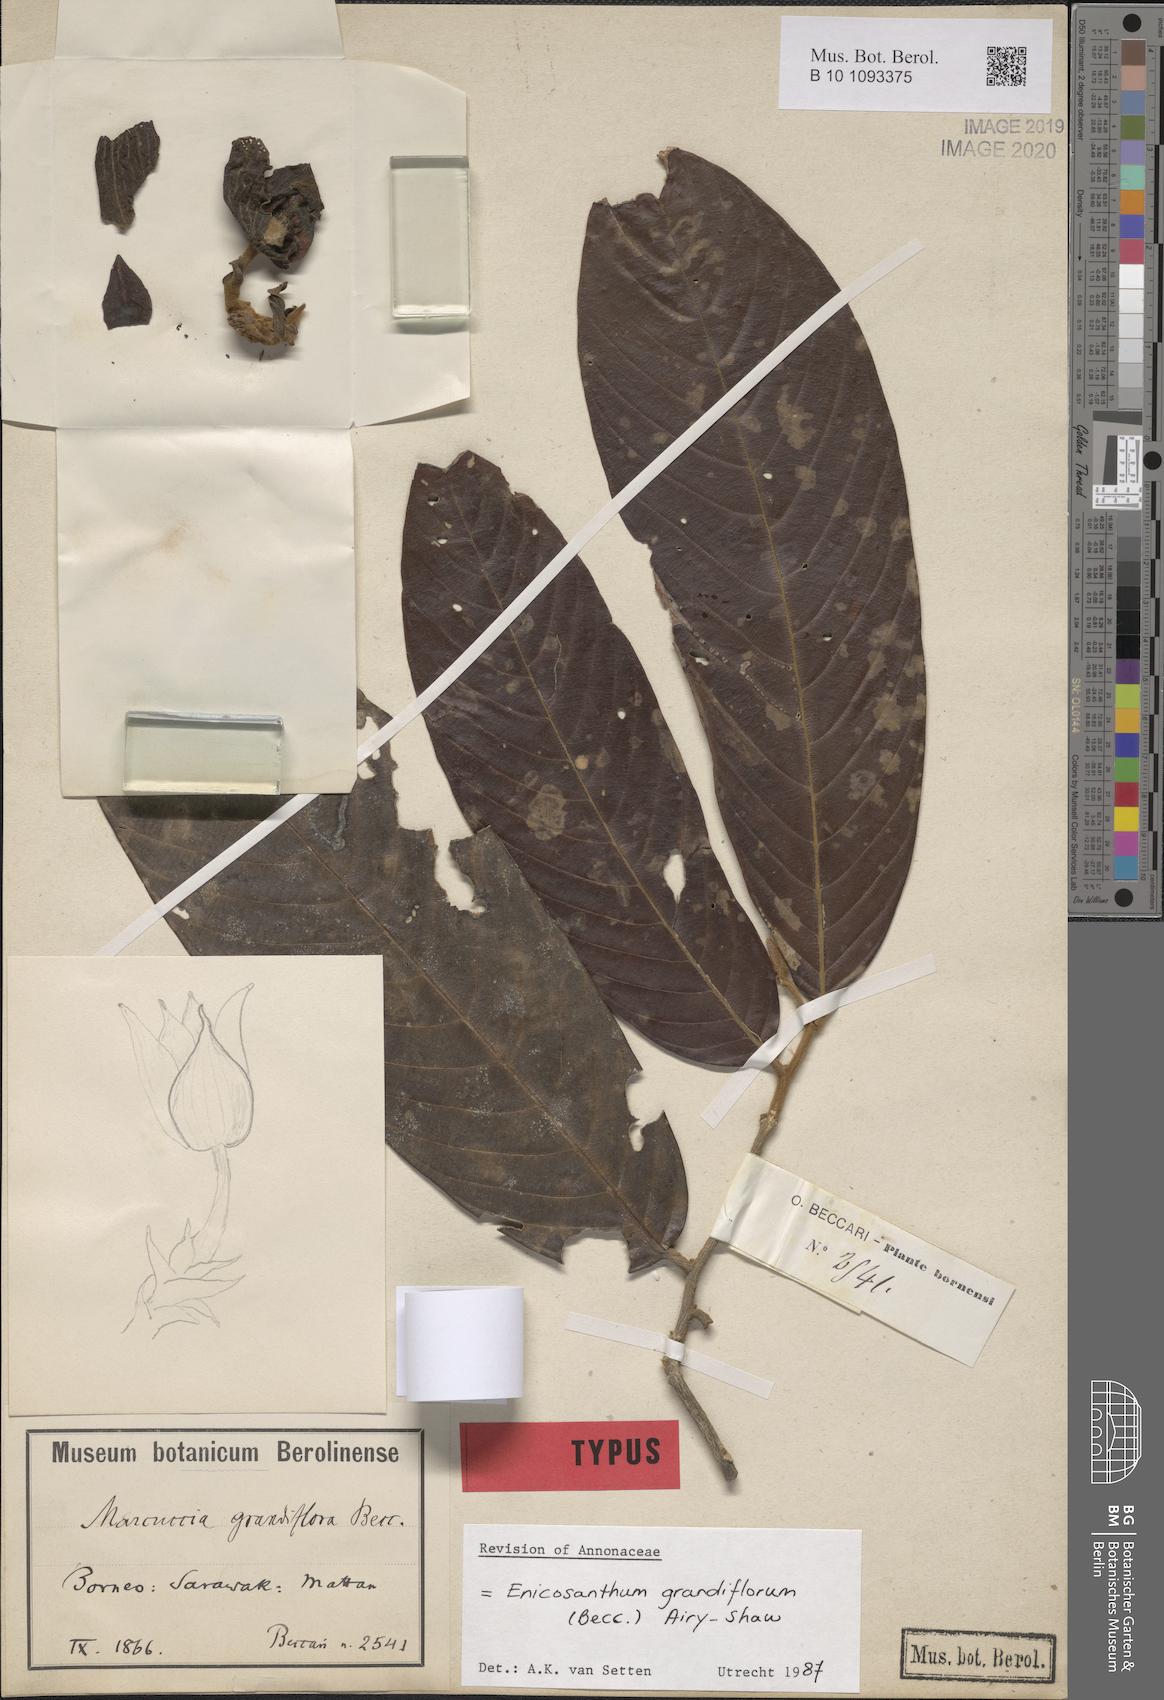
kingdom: Plantae
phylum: Tracheophyta
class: Magnoliopsida
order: Magnoliales
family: Annonaceae
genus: Enicosanthum
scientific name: Enicosanthum grandiflorum
